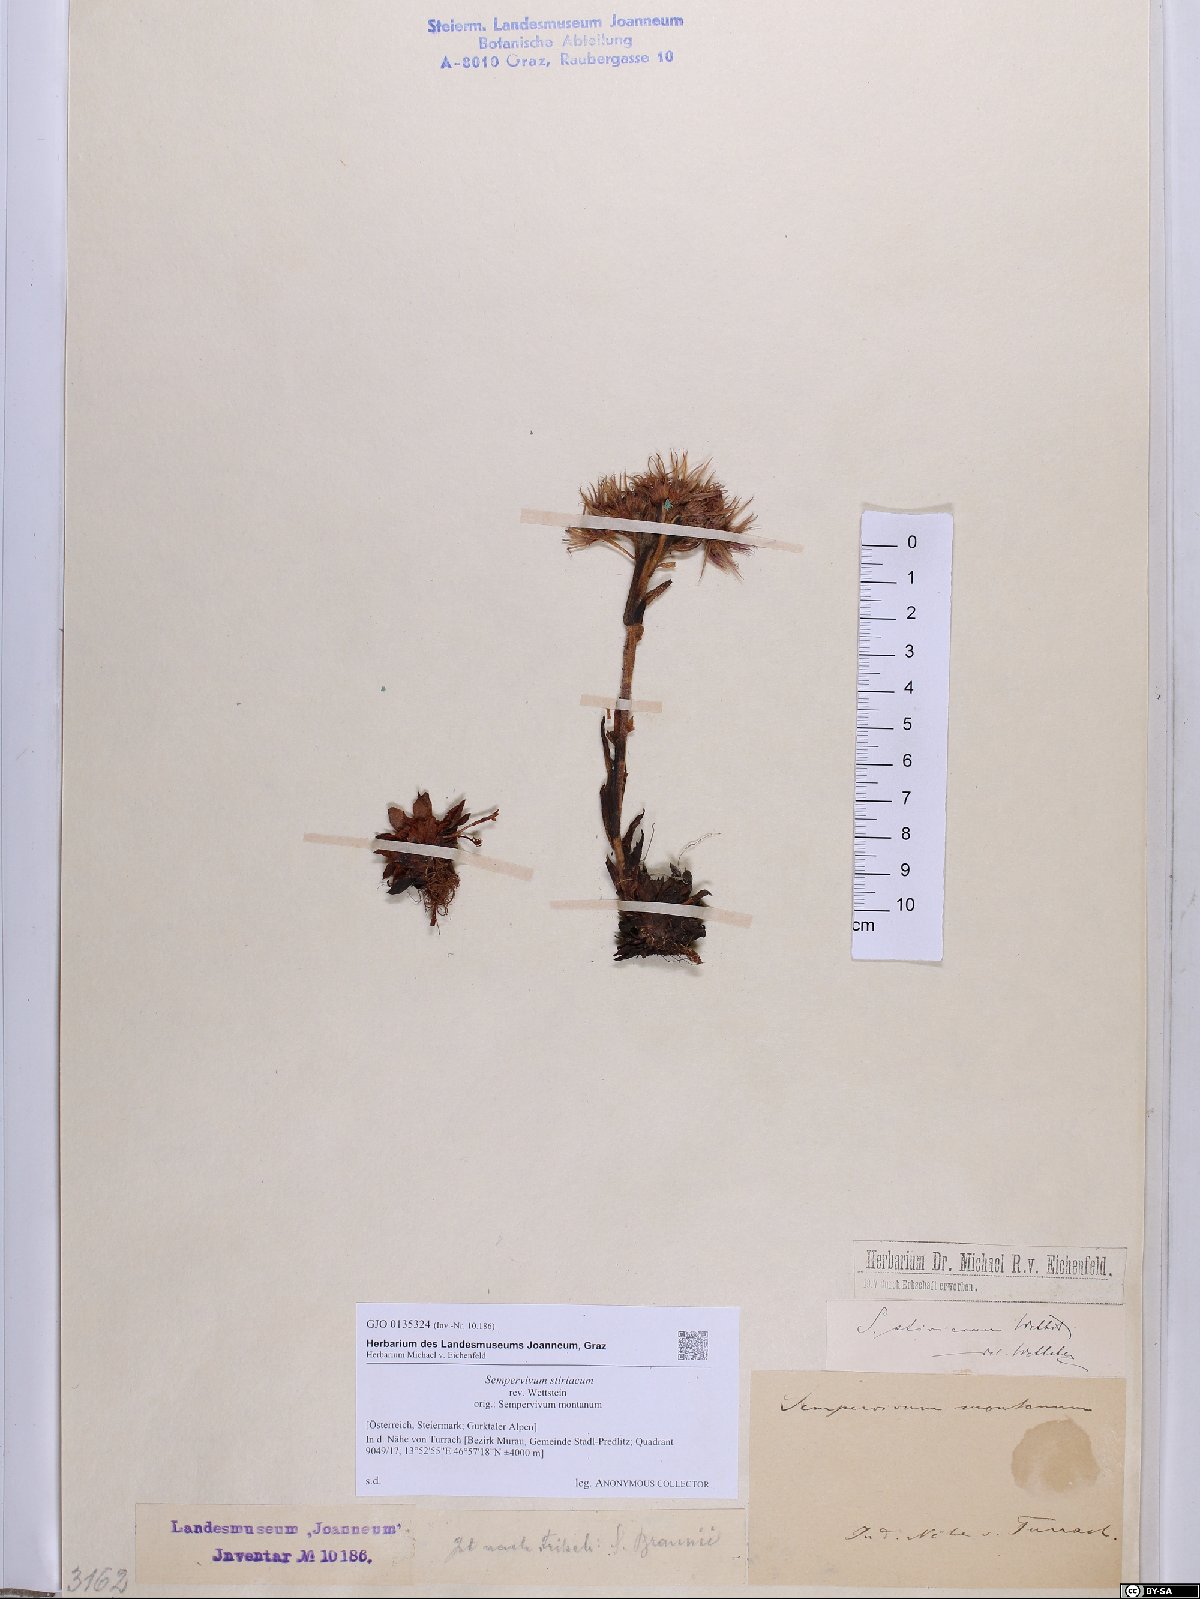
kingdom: Plantae
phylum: Tracheophyta
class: Magnoliopsida
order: Saxifragales
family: Crassulaceae
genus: Sempervivum
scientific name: Sempervivum montanum
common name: Mountain house-leek
